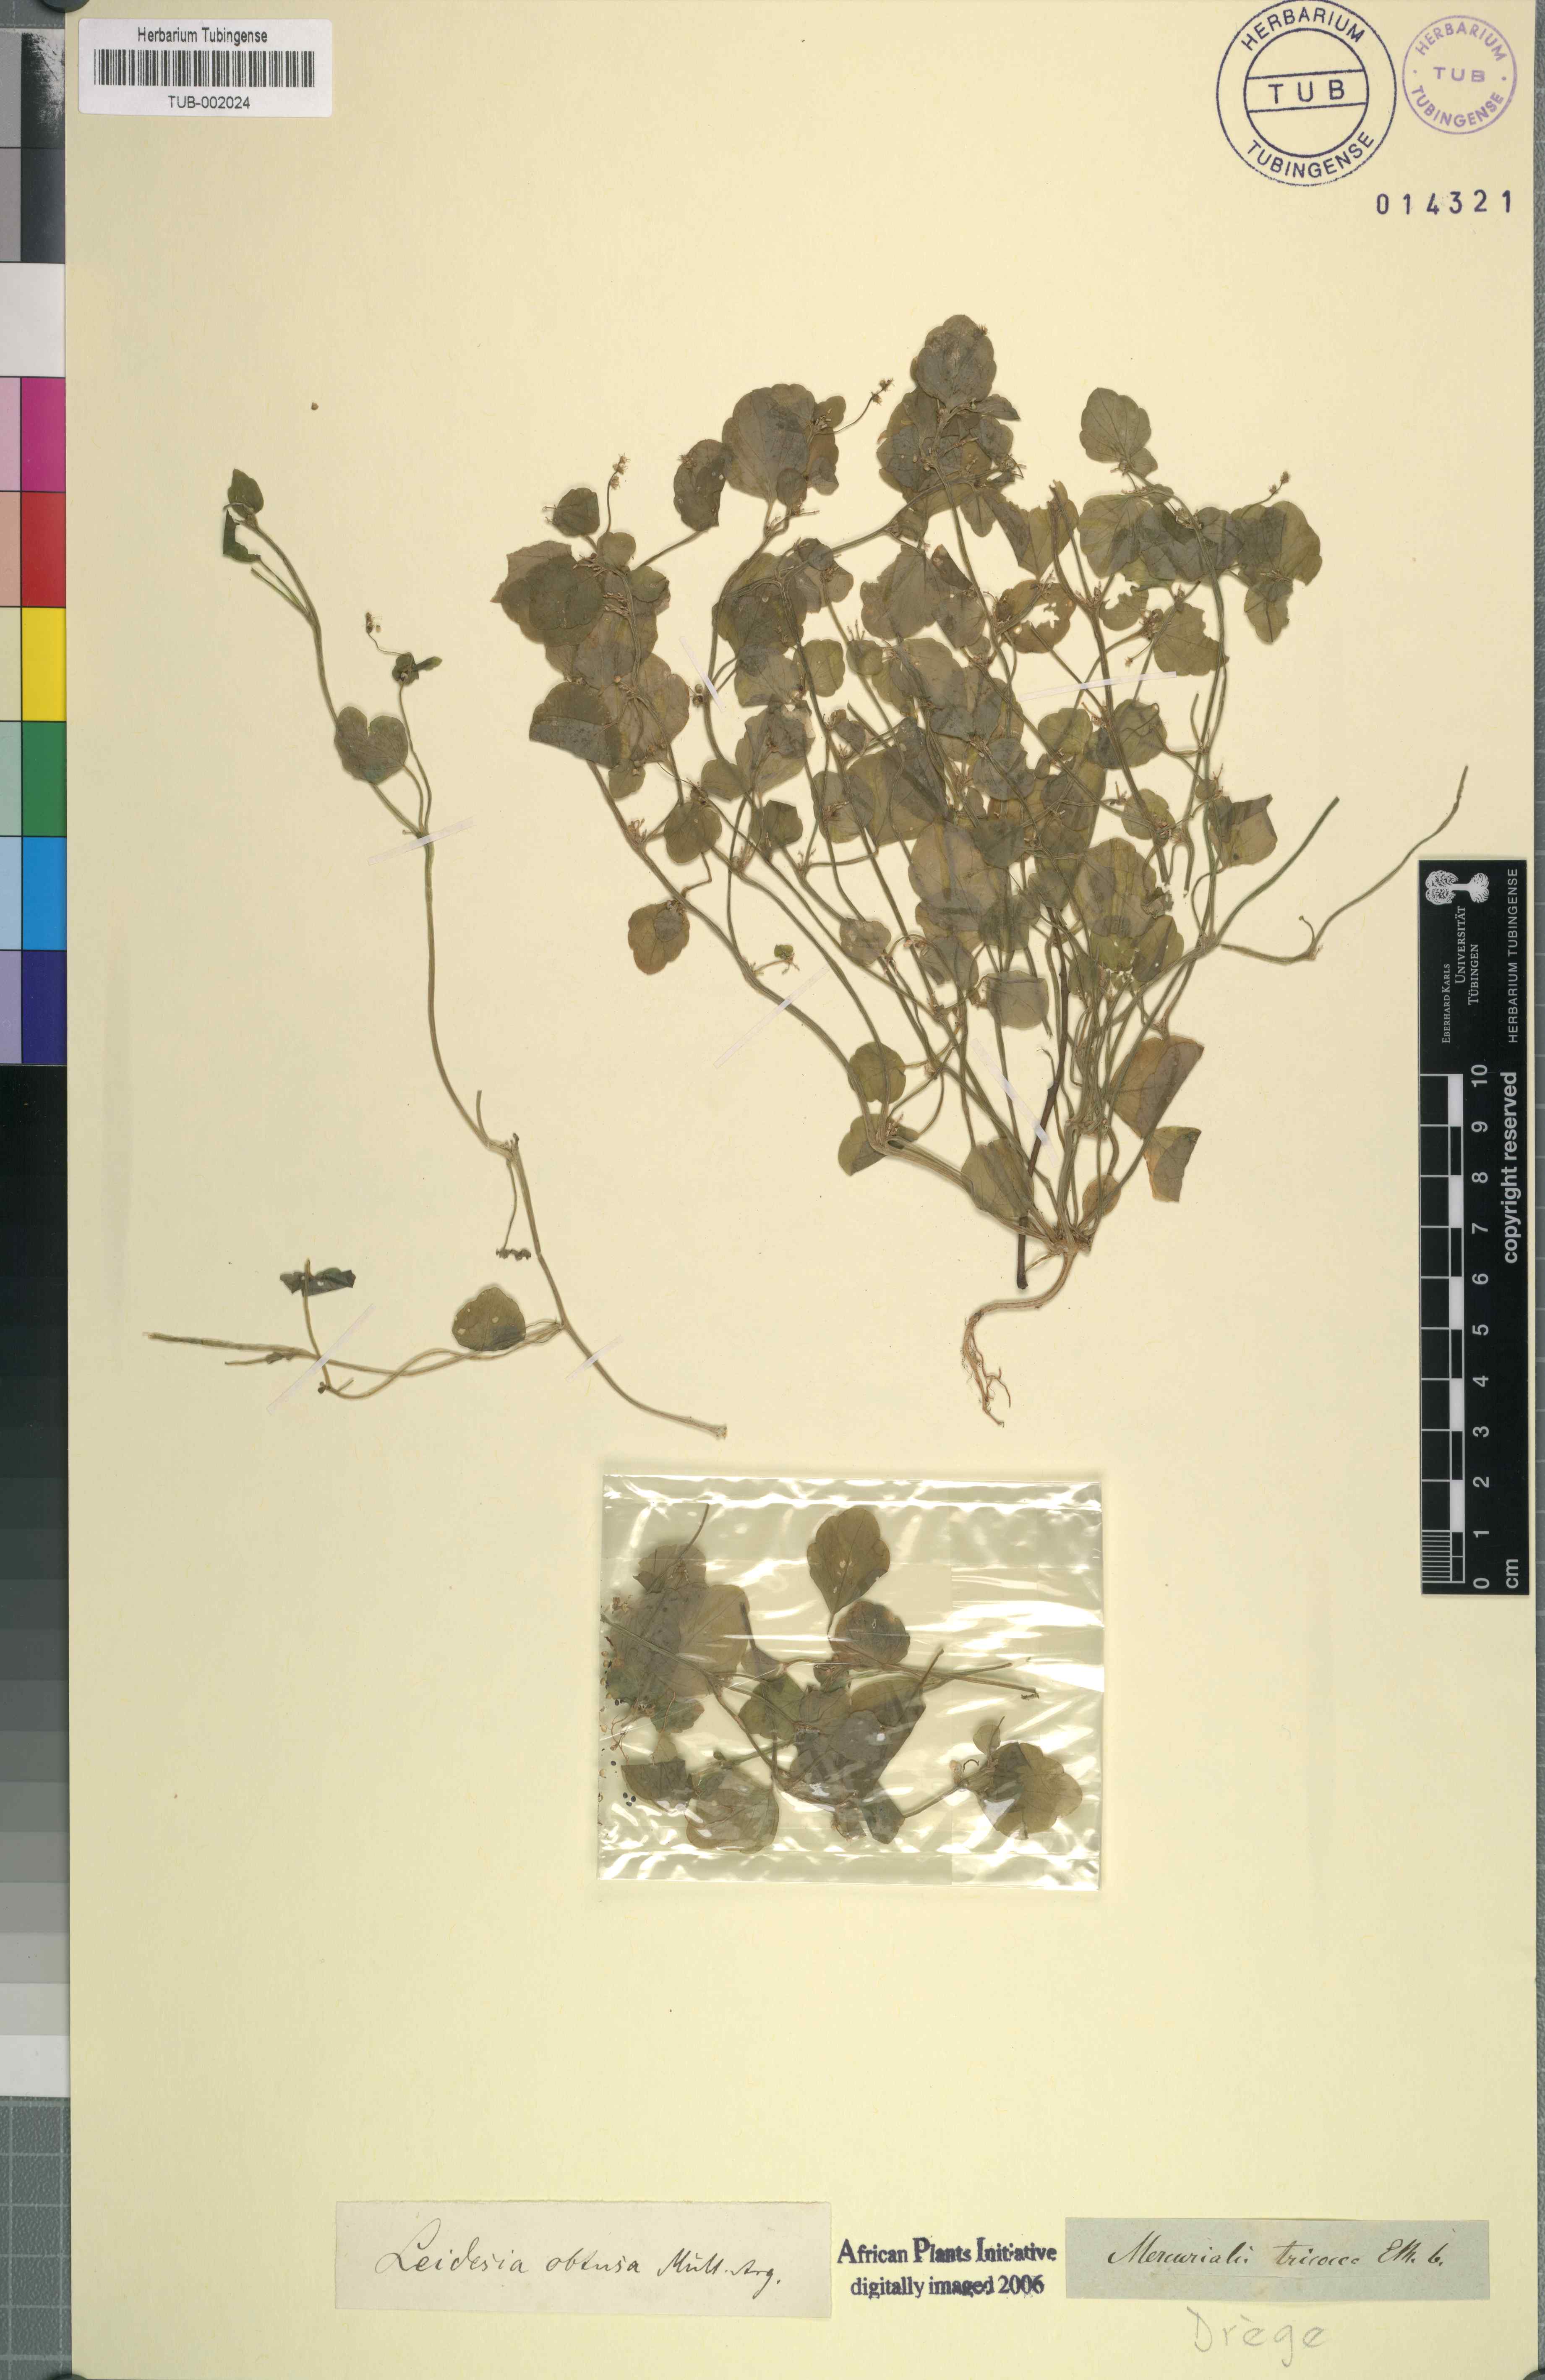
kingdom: Plantae
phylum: Tracheophyta
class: Magnoliopsida
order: Malpighiales
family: Euphorbiaceae
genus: Leidesia
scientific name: Leidesia procumbens
